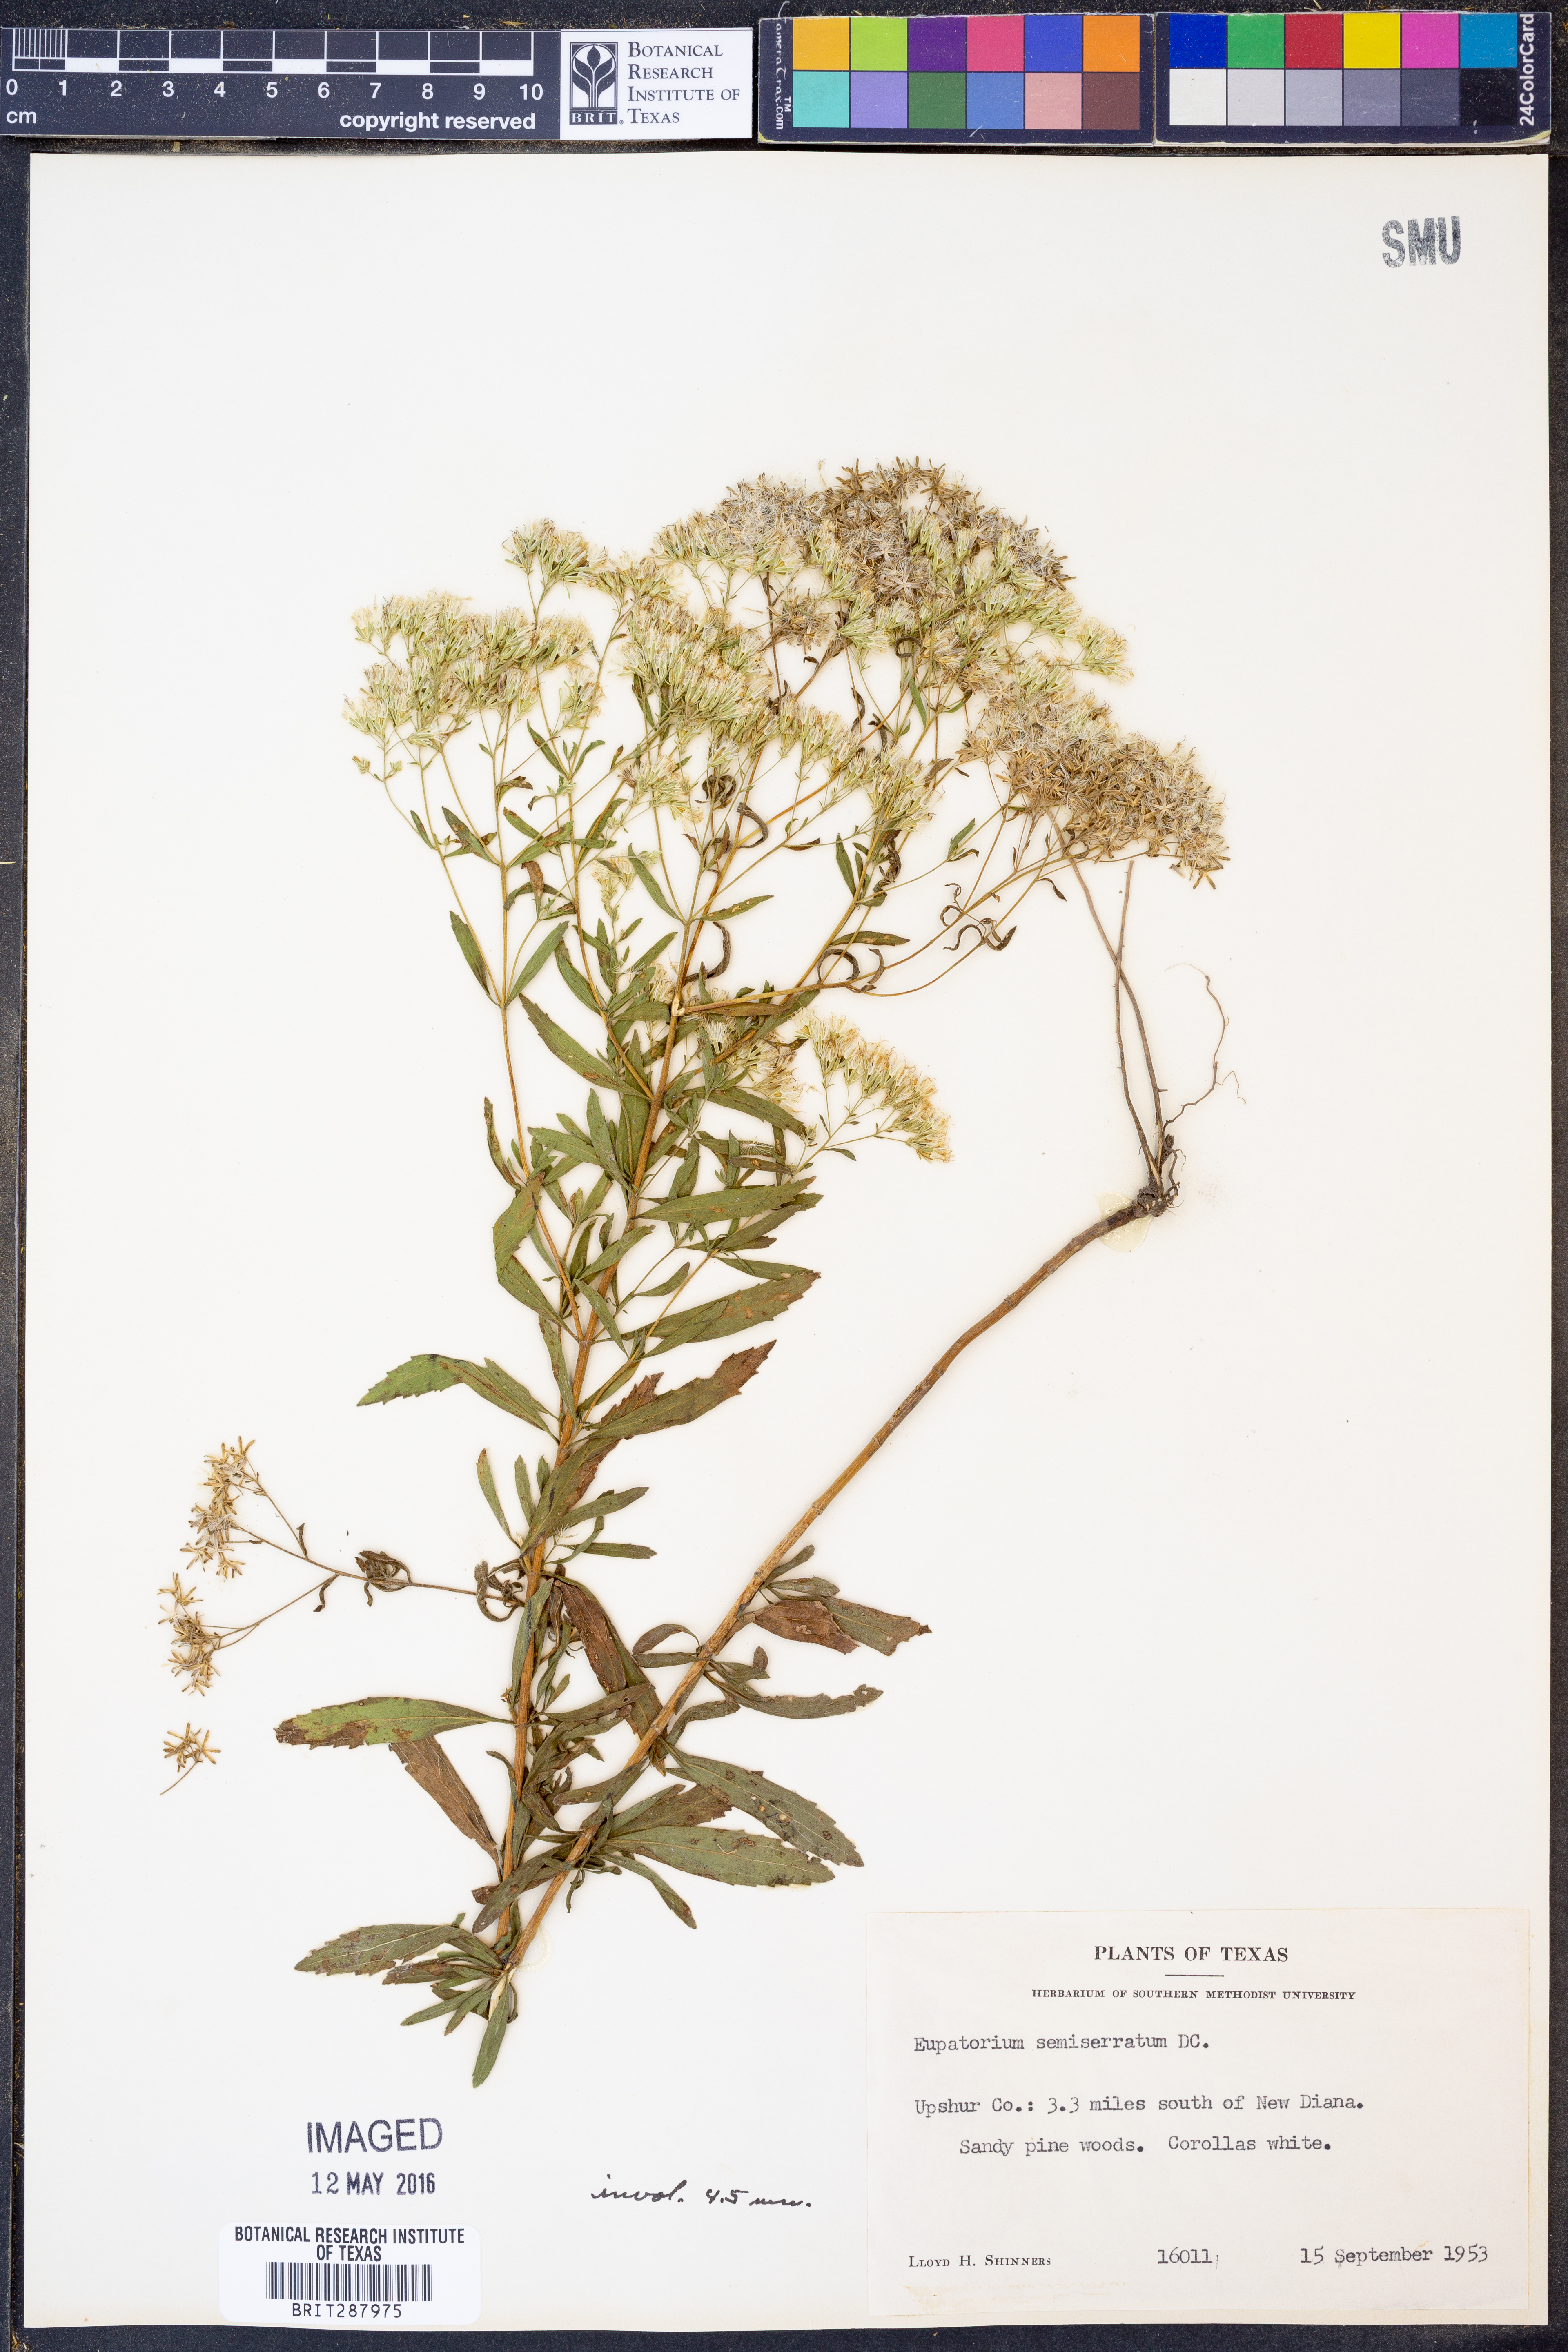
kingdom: Plantae
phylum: Tracheophyta
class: Magnoliopsida
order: Asterales
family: Asteraceae
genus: Eupatorium
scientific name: Eupatorium semiserratum
